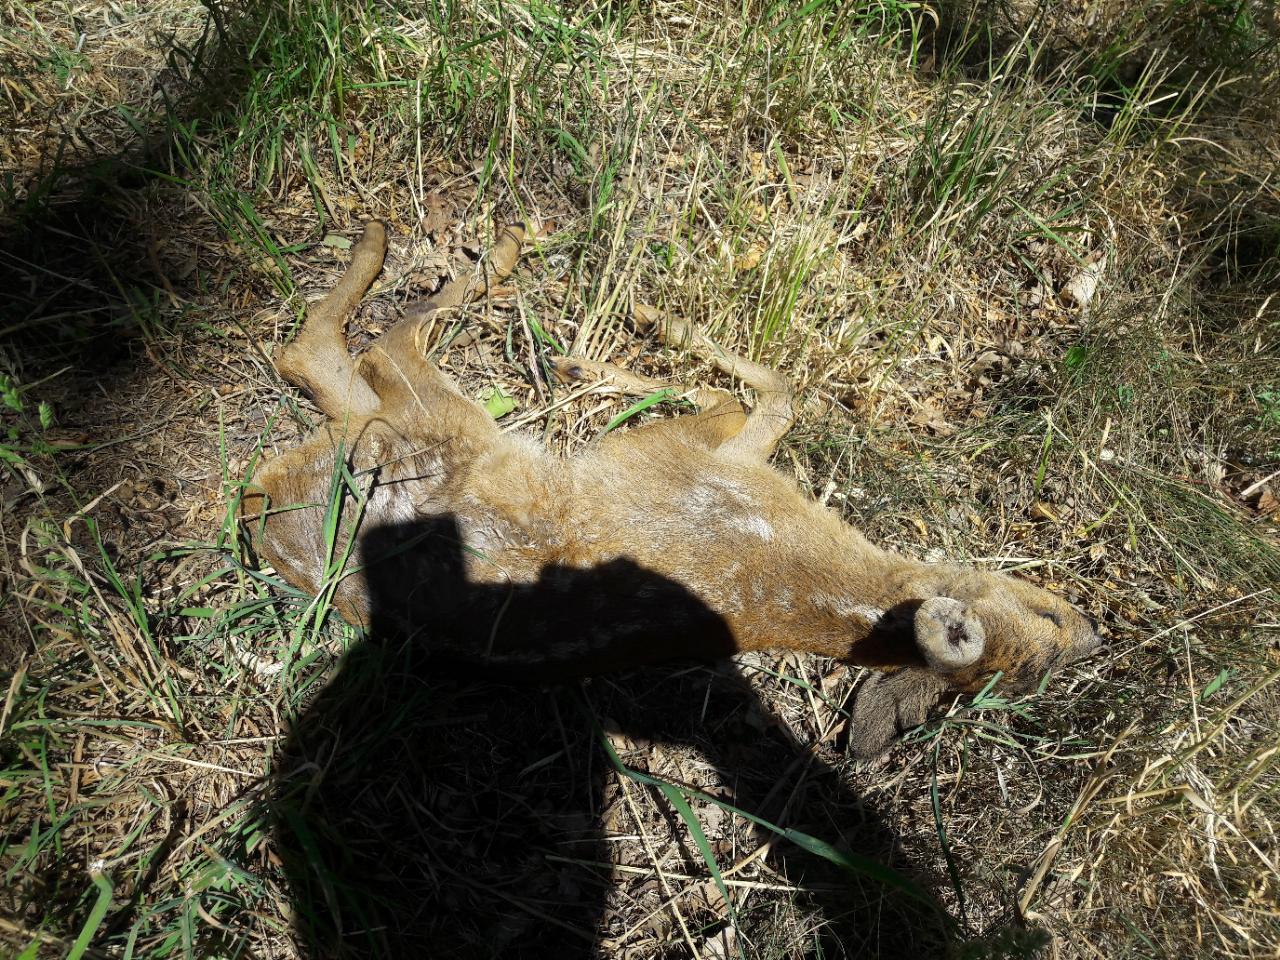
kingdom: Animalia
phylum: Chordata
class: Mammalia
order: Artiodactyla
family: Cervidae
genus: Capreolus
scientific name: Capreolus capreolus
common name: Western roe deer
